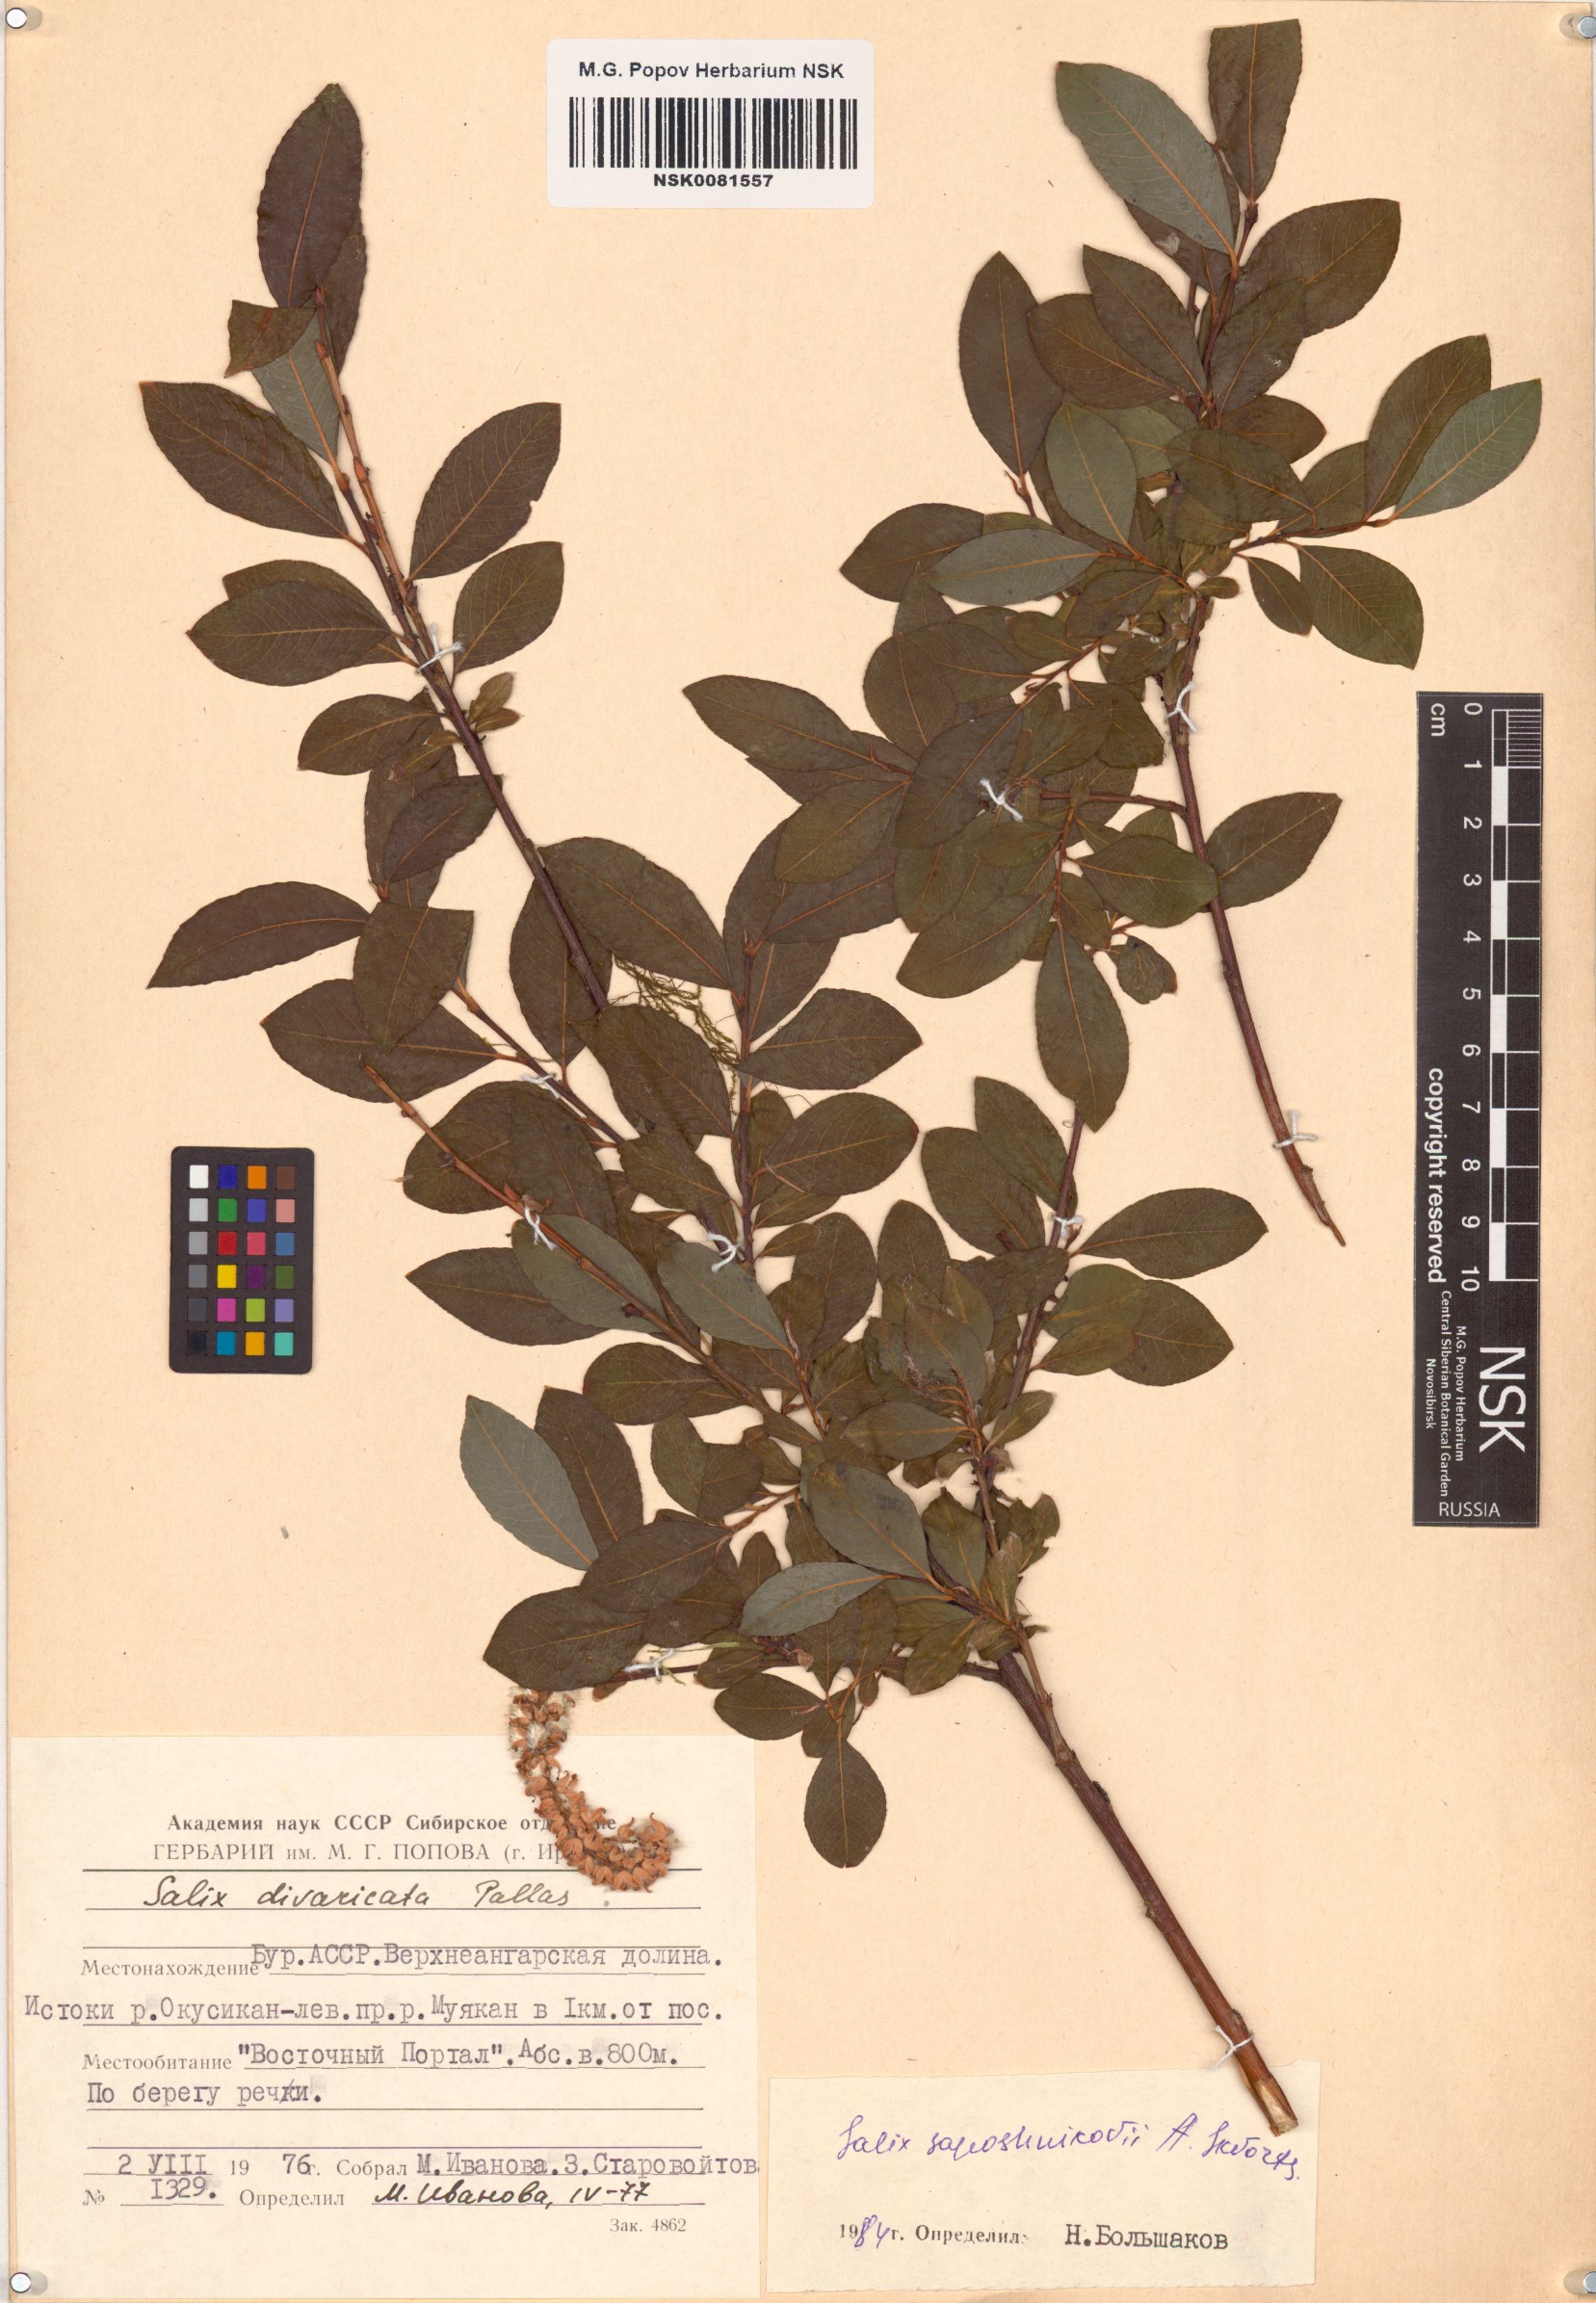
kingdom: Plantae
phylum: Tracheophyta
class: Magnoliopsida
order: Malpighiales
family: Salicaceae
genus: Salix
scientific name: Salix saposhnikovii
